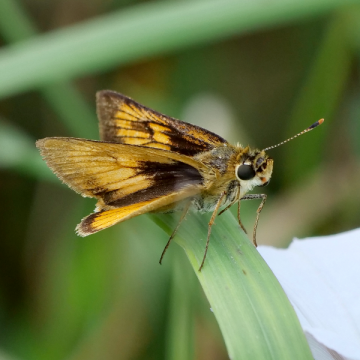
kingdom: Animalia
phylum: Arthropoda
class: Insecta
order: Lepidoptera
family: Hesperiidae
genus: Atrytone
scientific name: Atrytone delaware
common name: Delaware Skipper
